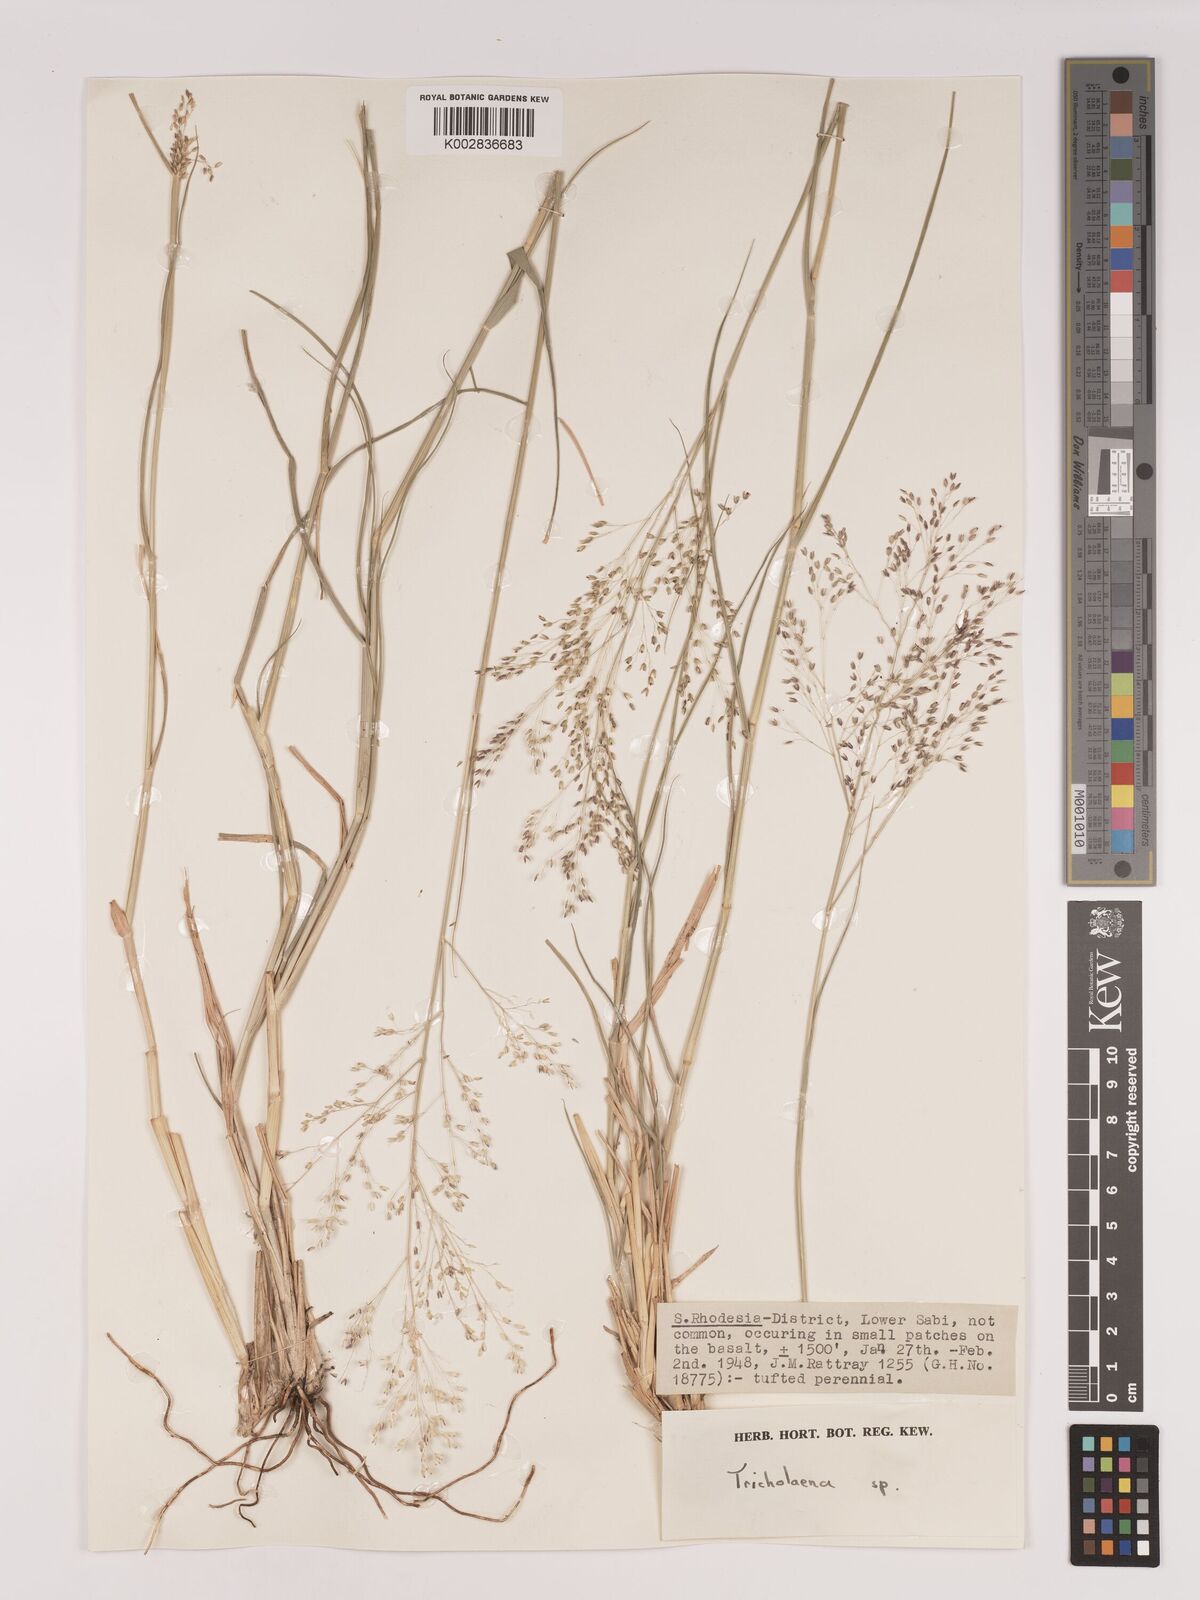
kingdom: Plantae
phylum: Tracheophyta
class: Liliopsida
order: Poales
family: Poaceae
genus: Tricholaena
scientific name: Tricholaena monachne
